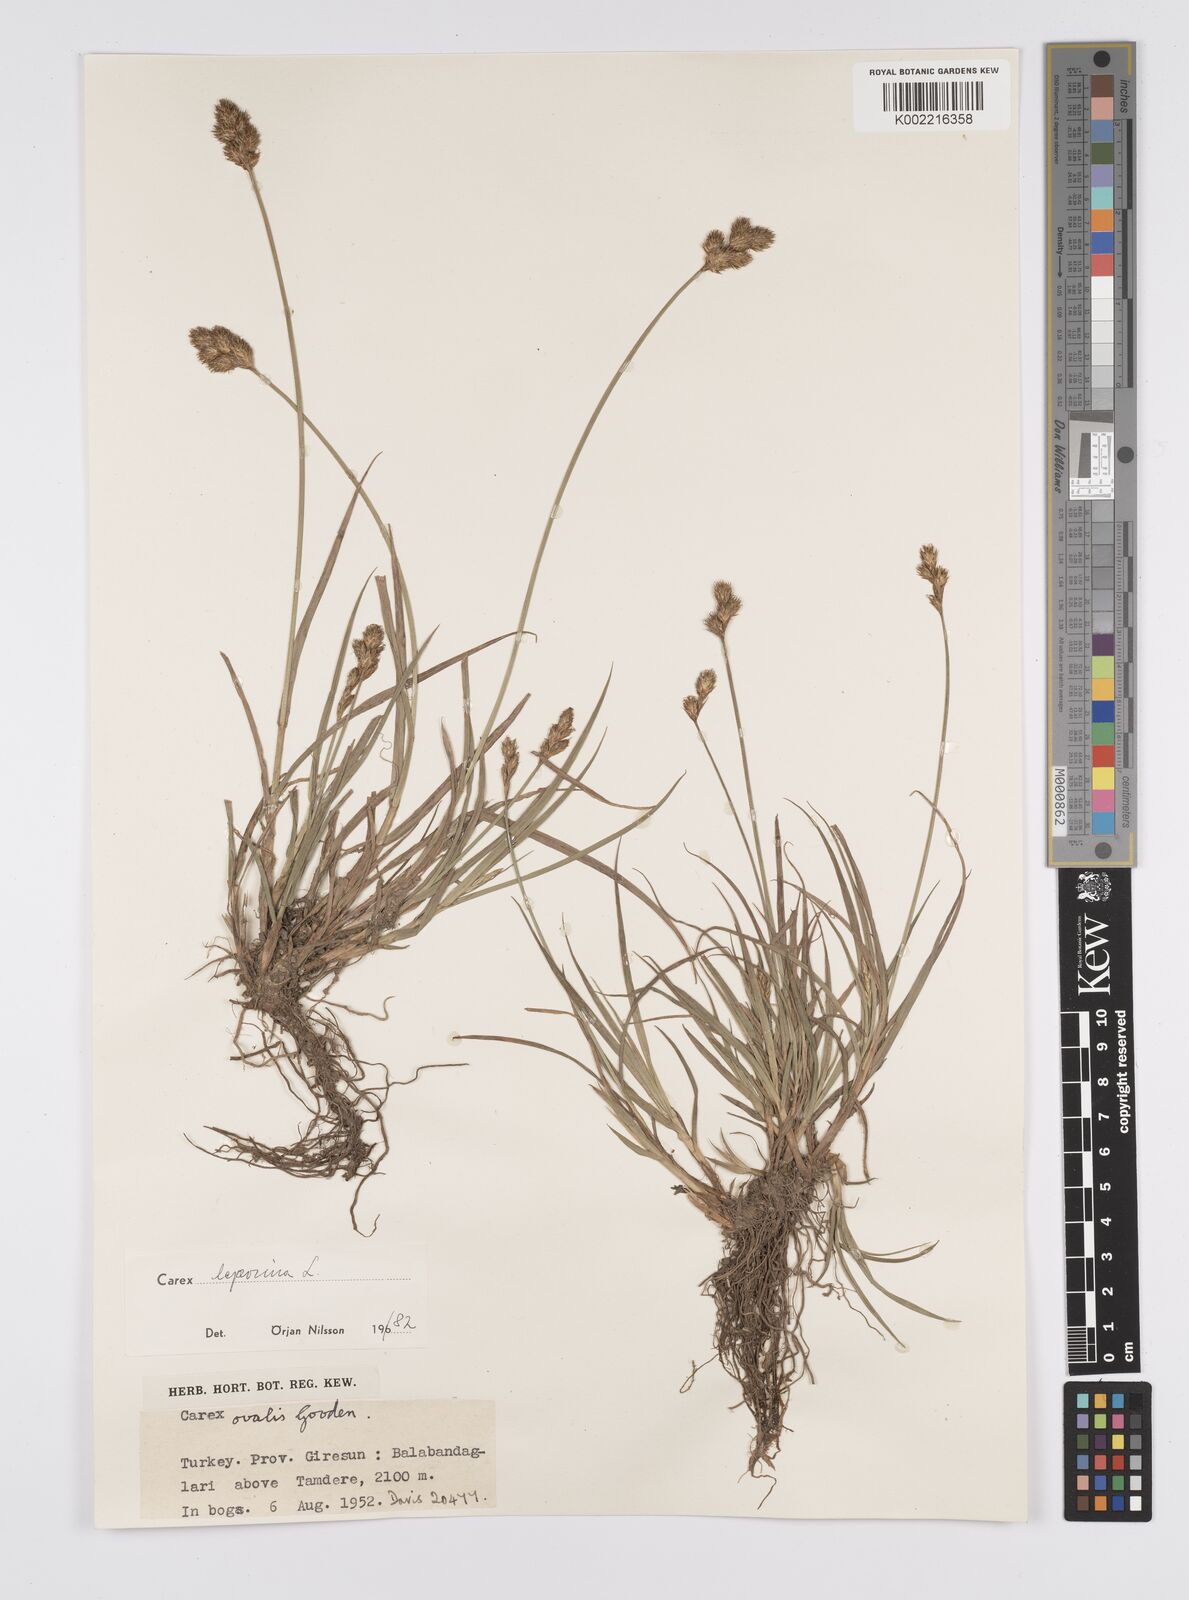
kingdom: Plantae
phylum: Tracheophyta
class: Liliopsida
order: Poales
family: Cyperaceae
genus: Carex
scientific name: Carex leporina
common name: Oval sedge
